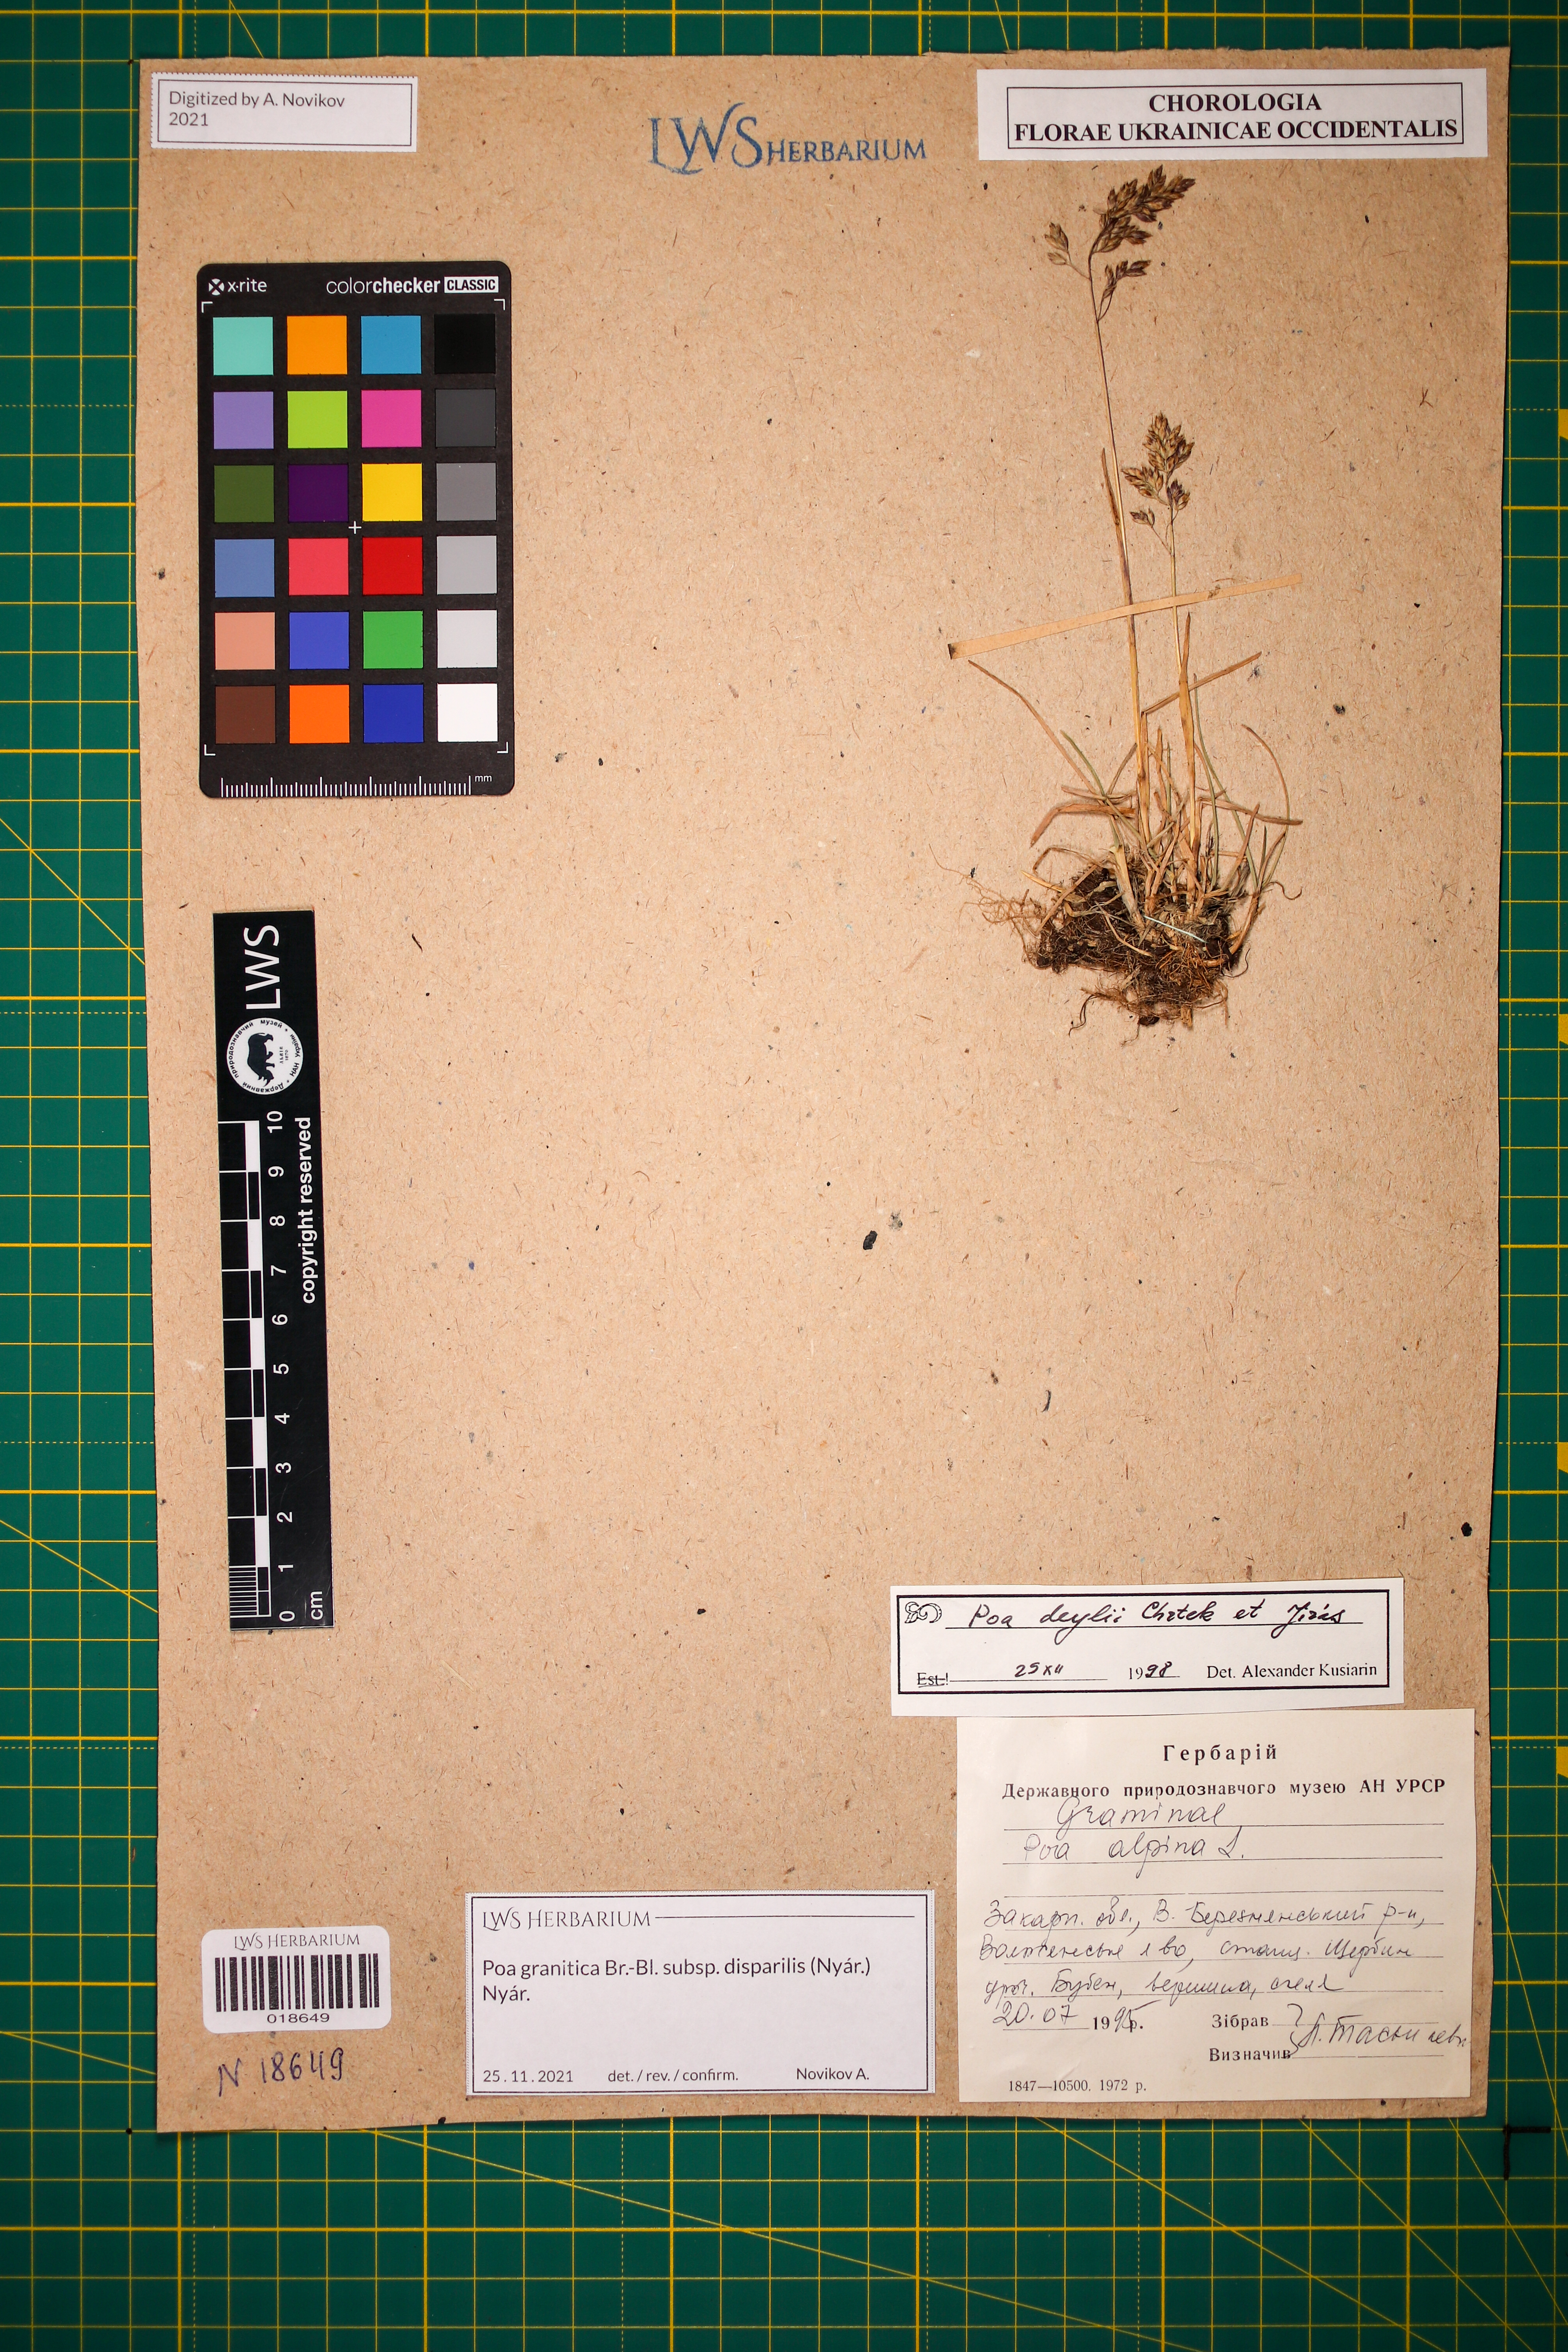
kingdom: Plantae
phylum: Tracheophyta
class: Liliopsida
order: Poales
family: Poaceae
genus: Poa
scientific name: Poa granitica
